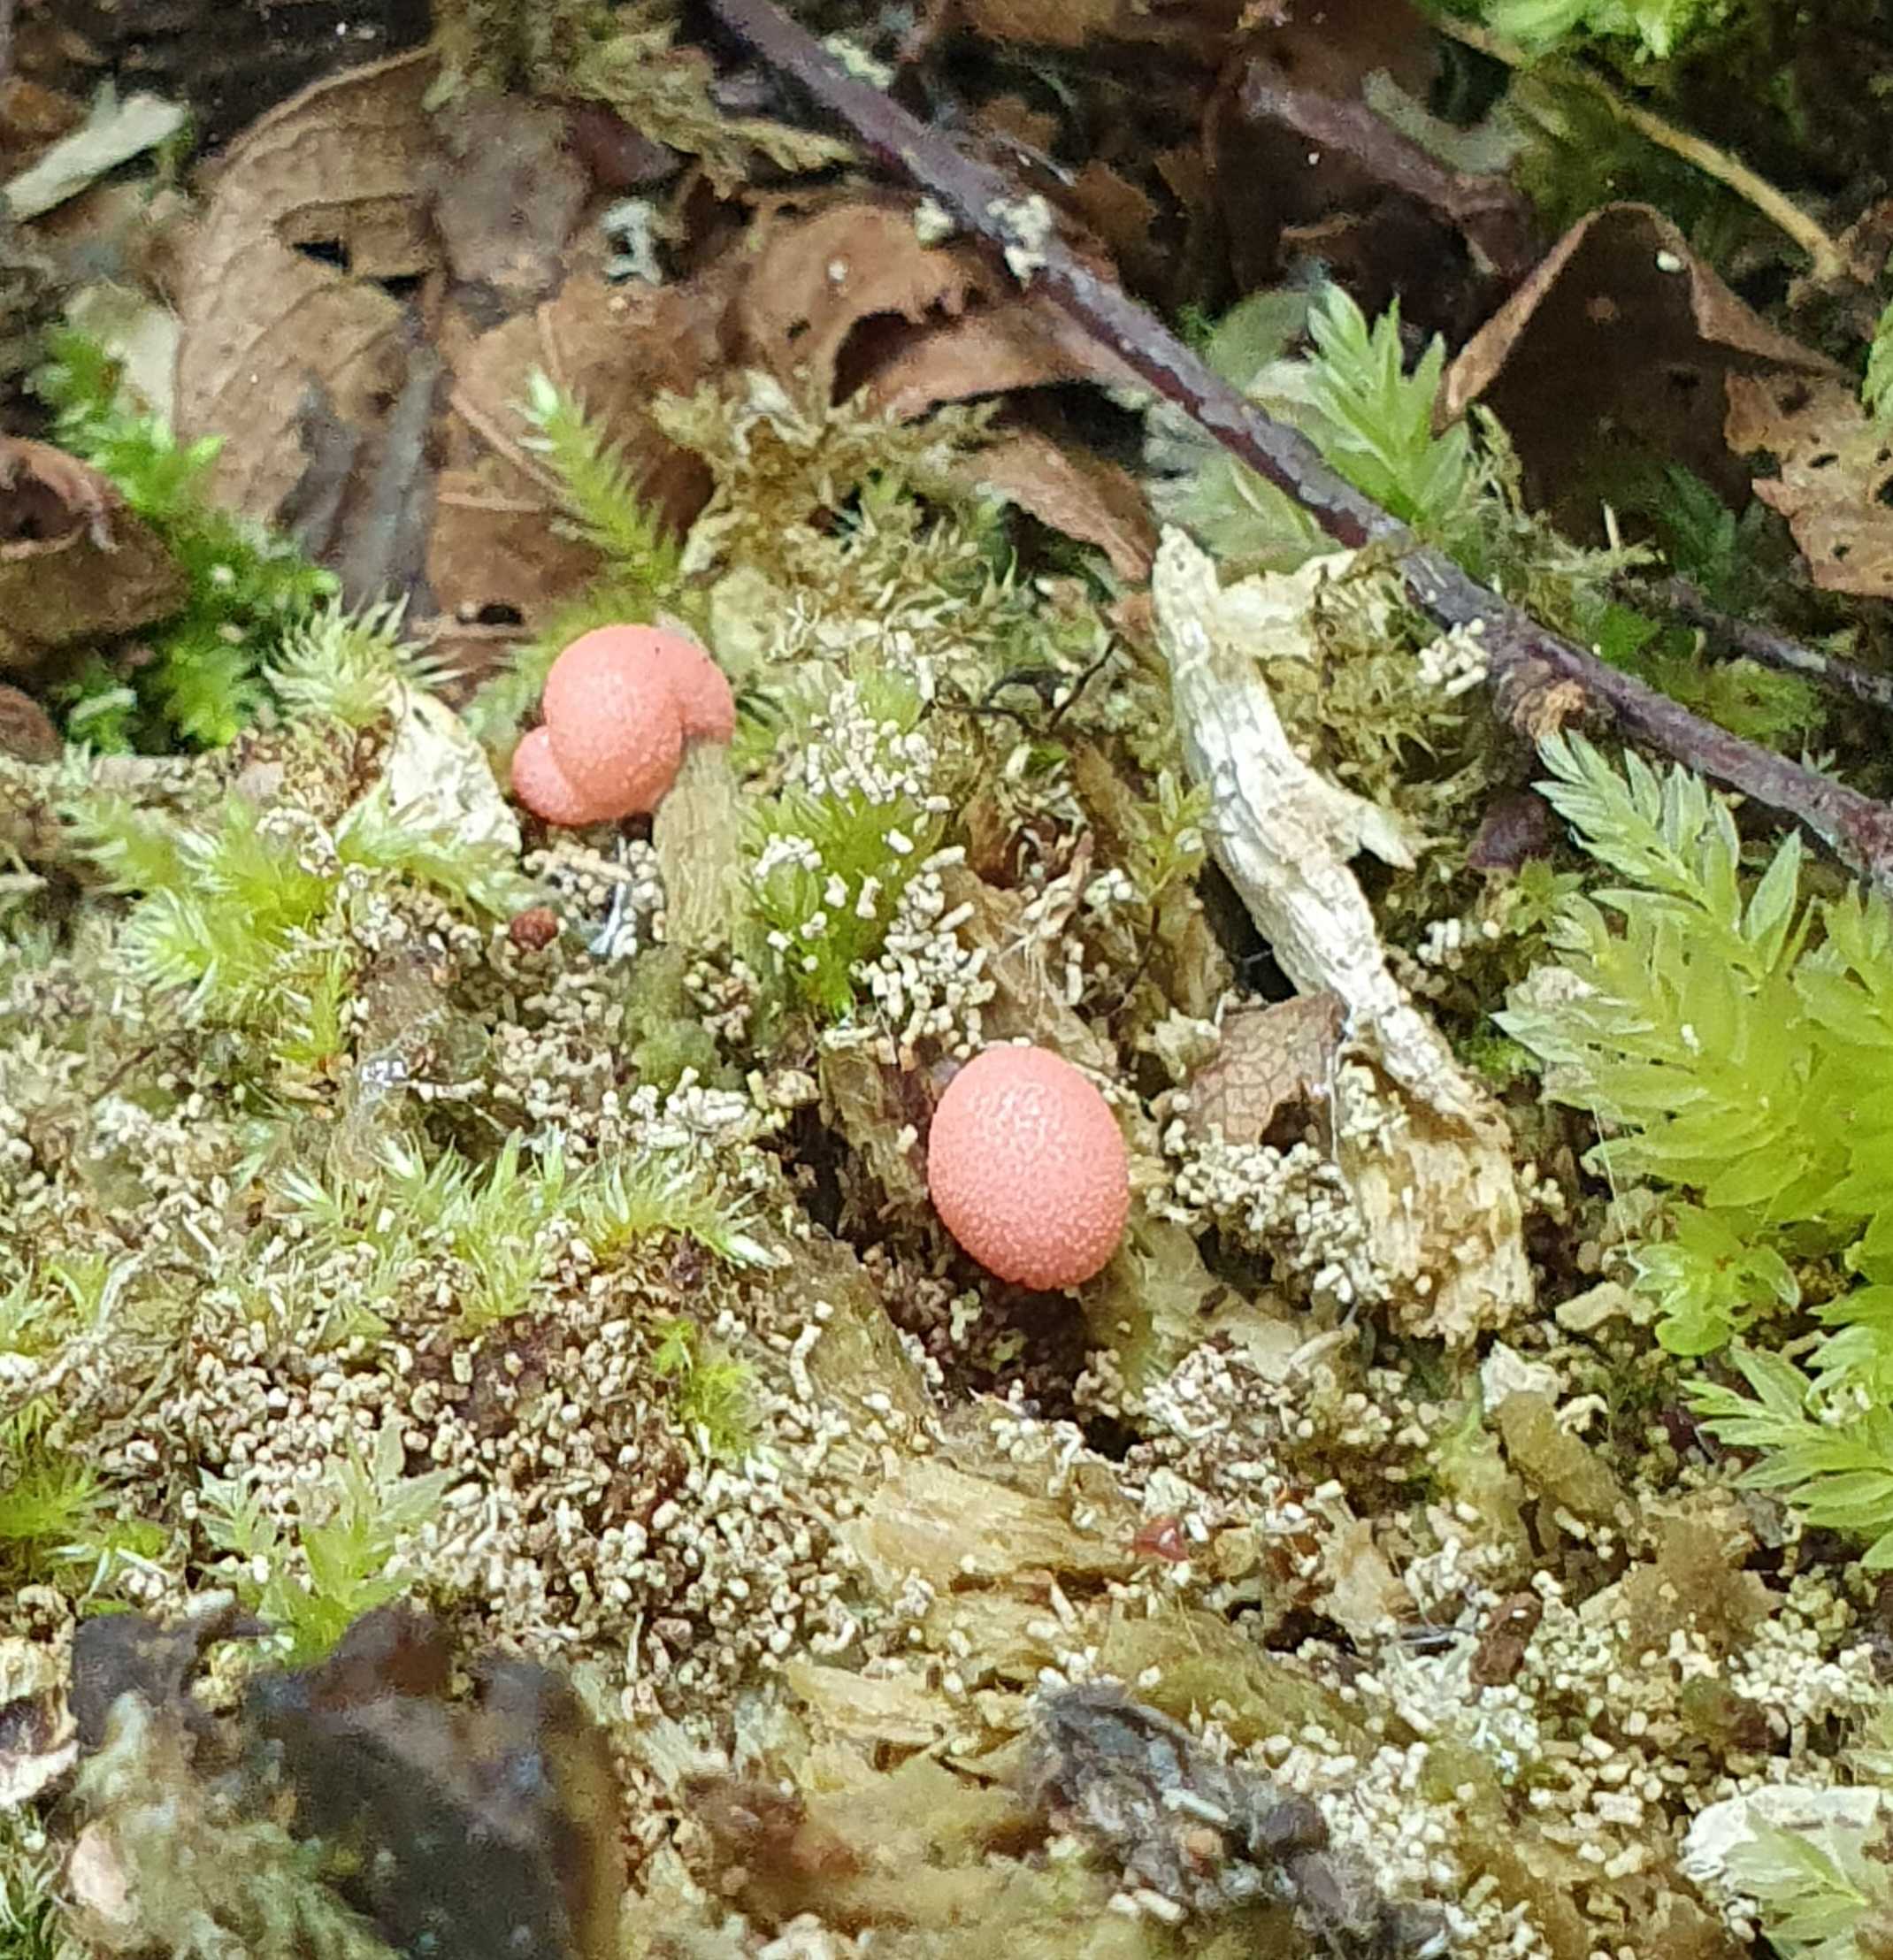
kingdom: Protozoa
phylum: Mycetozoa
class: Myxomycetes
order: Cribrariales
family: Tubiferaceae
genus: Lycogala
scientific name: Lycogala epidendrum
